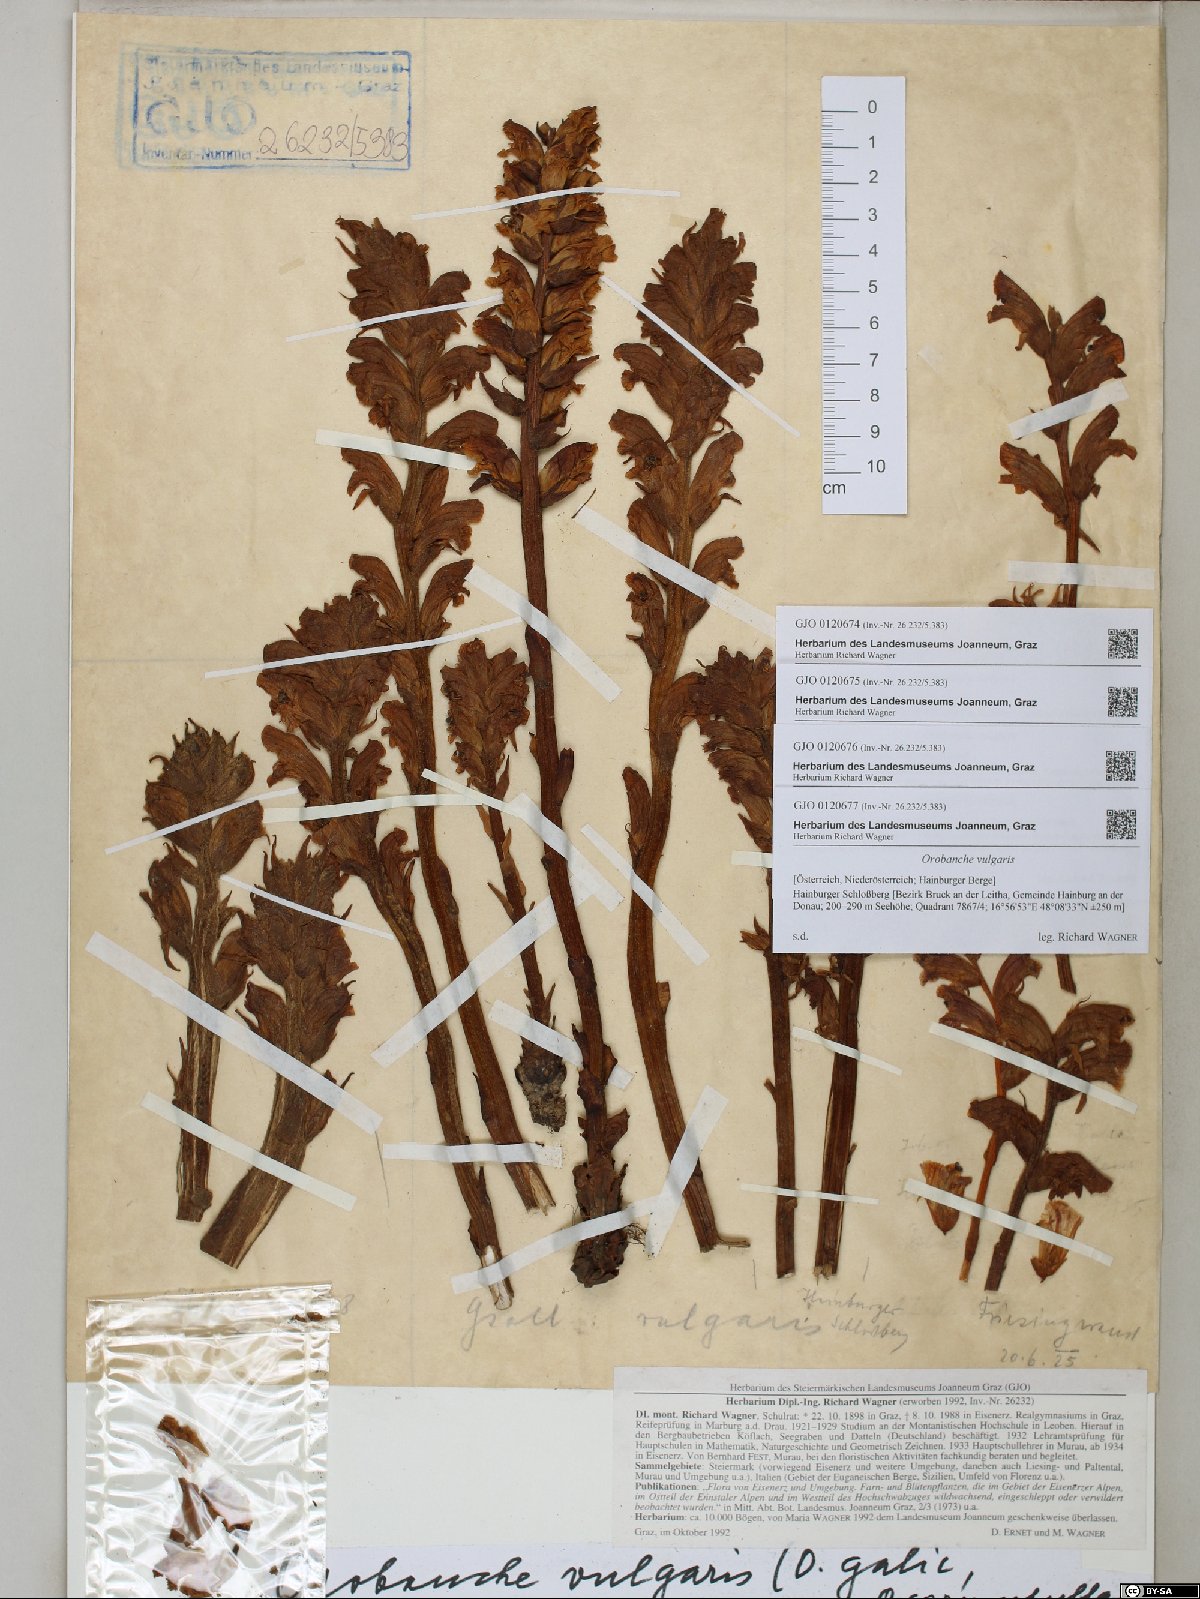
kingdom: Plantae
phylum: Tracheophyta
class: Magnoliopsida
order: Lamiales
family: Orobanchaceae
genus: Orobanche
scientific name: Orobanche caryophyllacea
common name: Bedstraw broomrape
